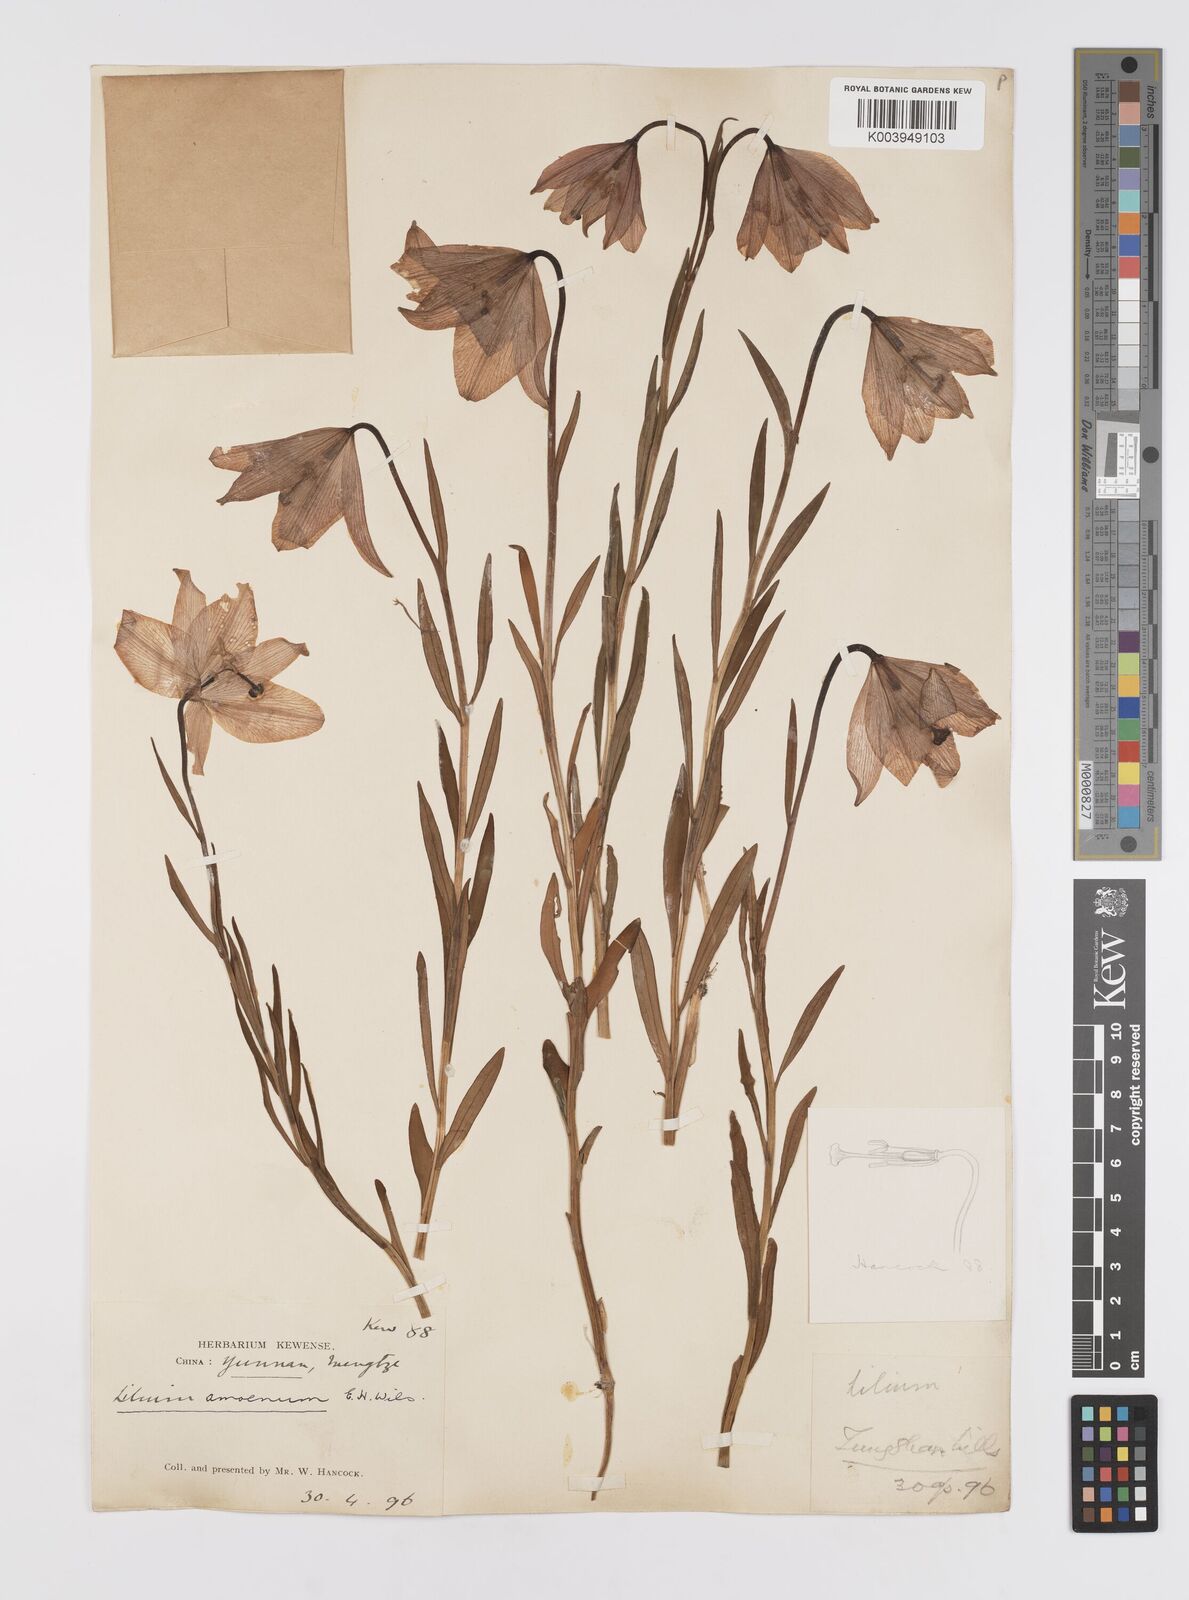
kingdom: Plantae
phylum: Tracheophyta
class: Liliopsida
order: Liliales
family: Liliaceae
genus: Lilium
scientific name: Lilium amoenum
